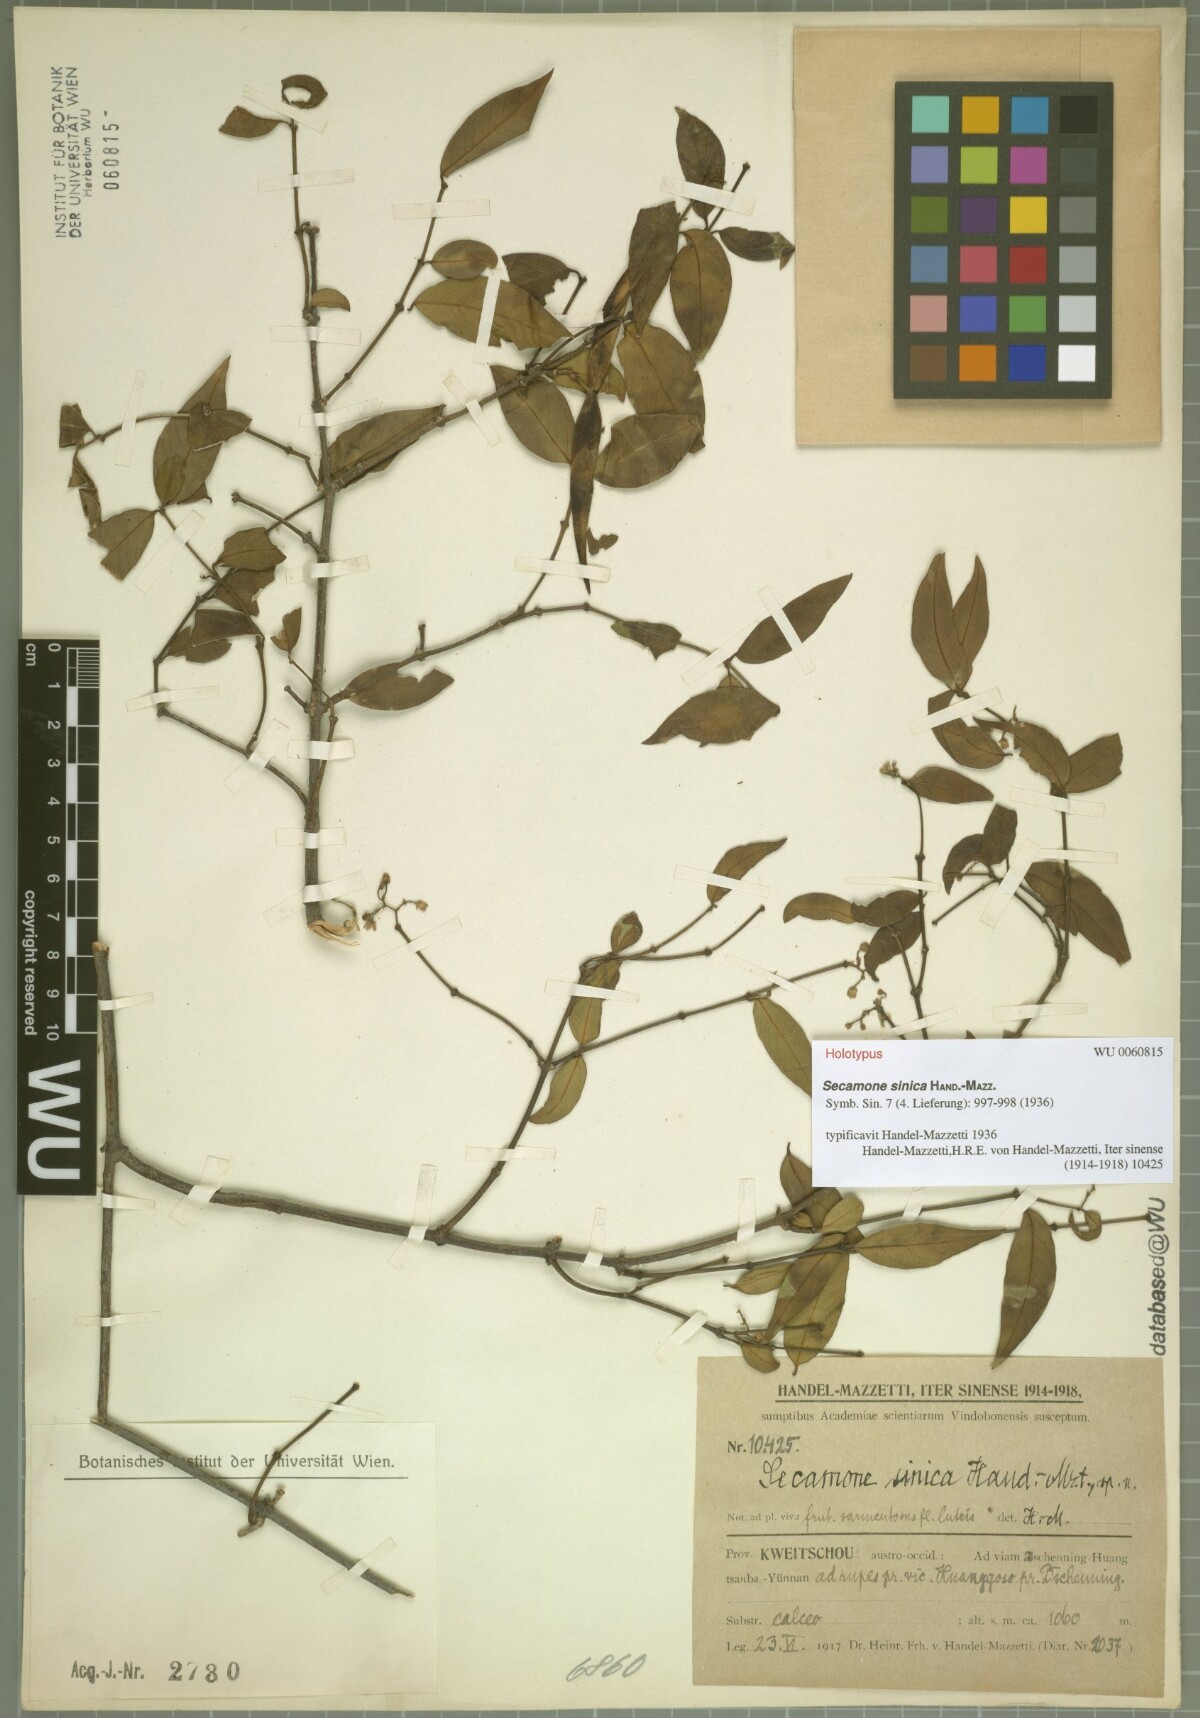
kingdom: Plantae
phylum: Tracheophyta
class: Magnoliopsida
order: Gentianales
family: Apocynaceae
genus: Secamone
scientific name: Secamone elliptica
